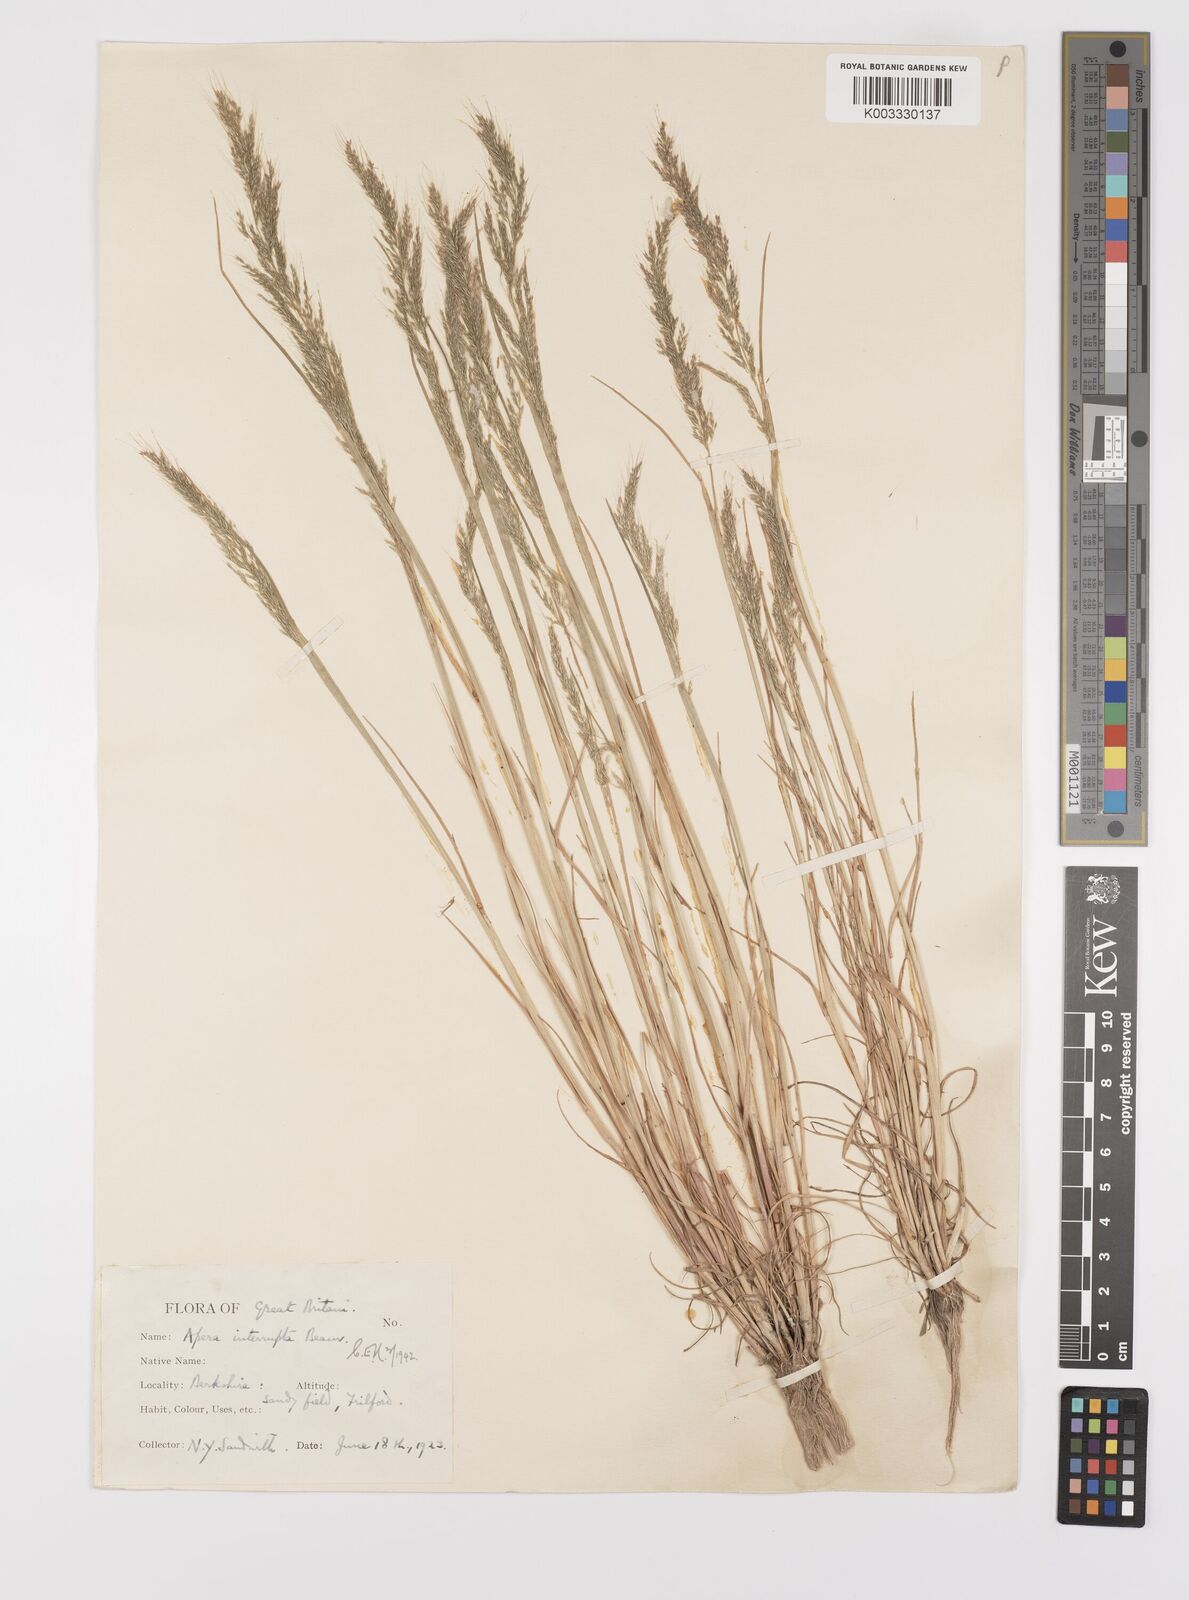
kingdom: Plantae
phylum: Tracheophyta
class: Liliopsida
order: Poales
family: Poaceae
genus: Apera
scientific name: Apera interrupta
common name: Dense silky-bent
